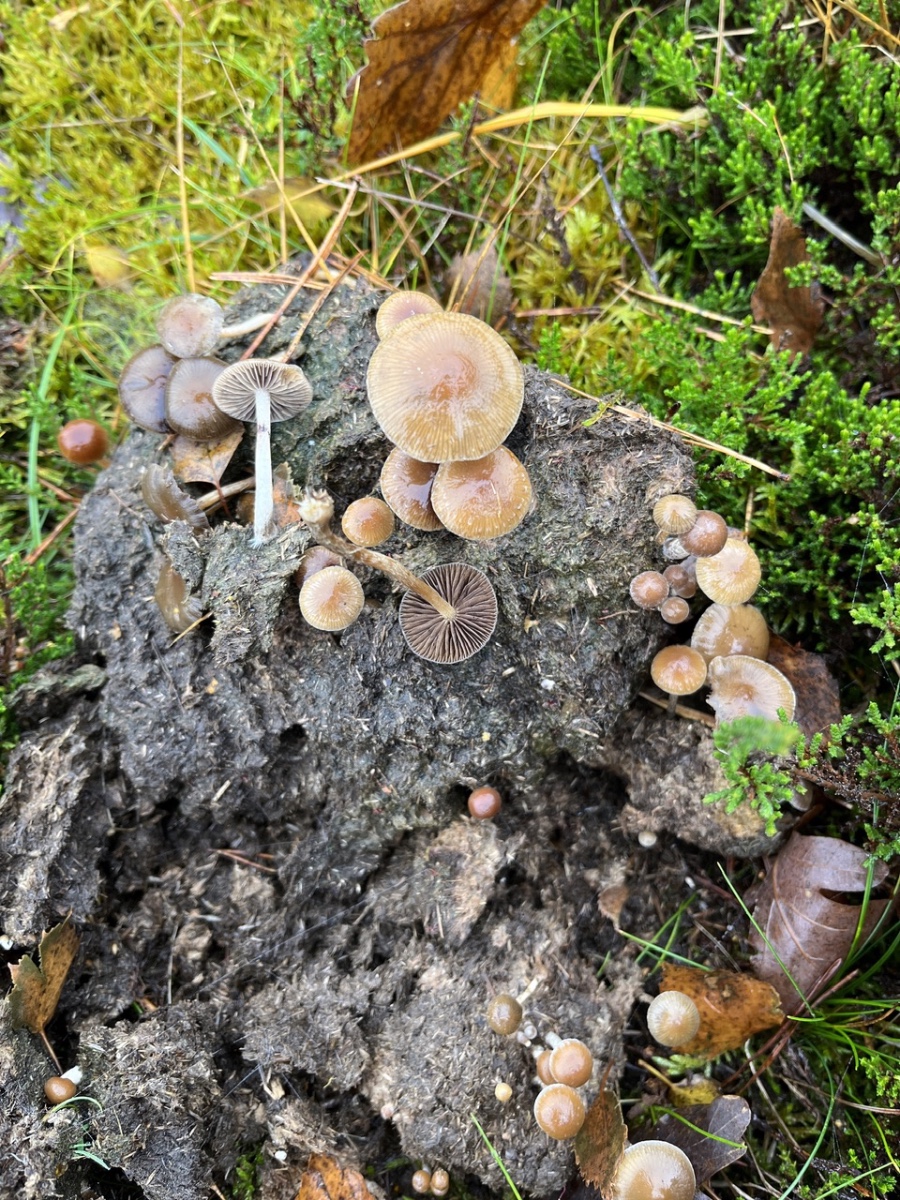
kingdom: Fungi
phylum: Basidiomycota
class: Agaricomycetes
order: Agaricales
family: Strophariaceae
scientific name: Strophariaceae
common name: bredbladfamilien
